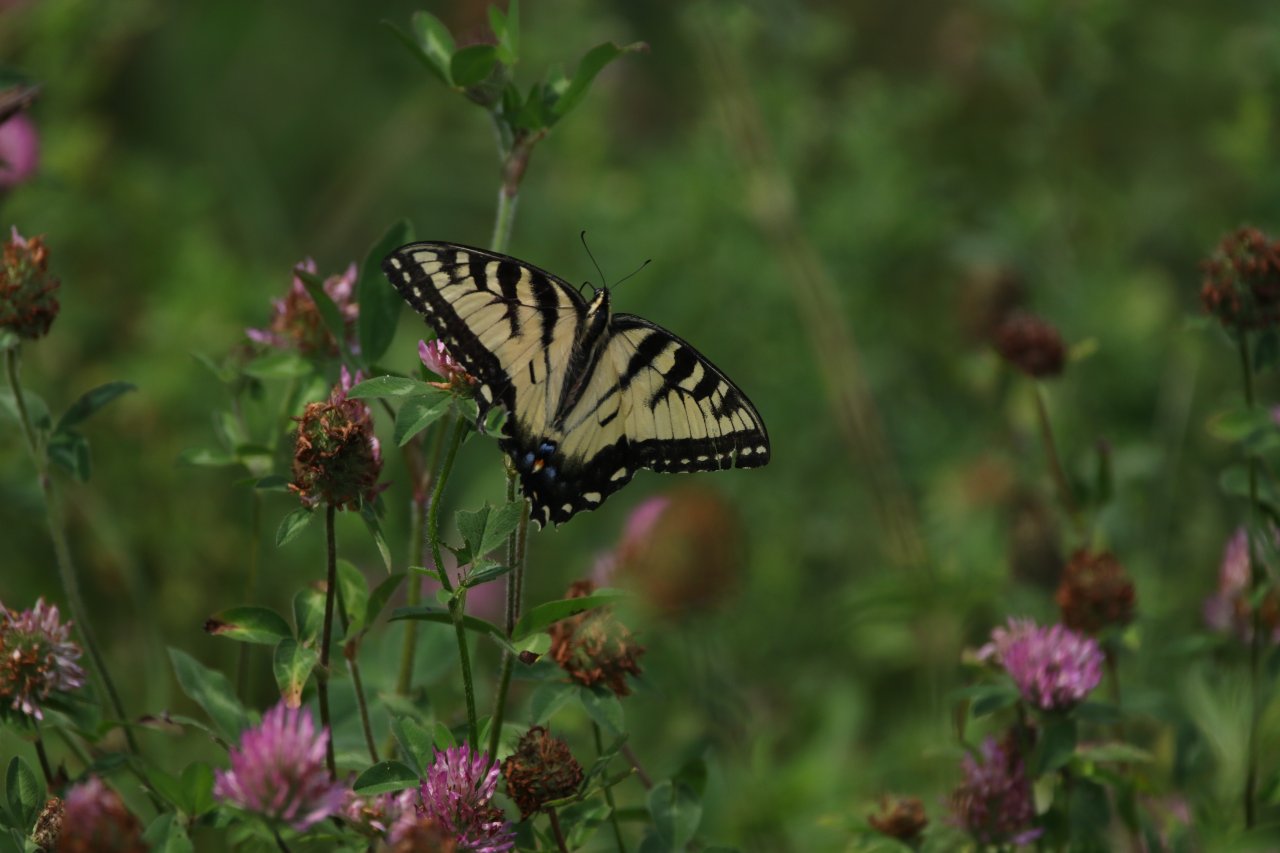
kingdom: Animalia
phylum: Arthropoda
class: Insecta
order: Lepidoptera
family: Papilionidae
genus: Pterourus
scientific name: Pterourus glaucus
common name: Eastern Tiger Swallowtail
